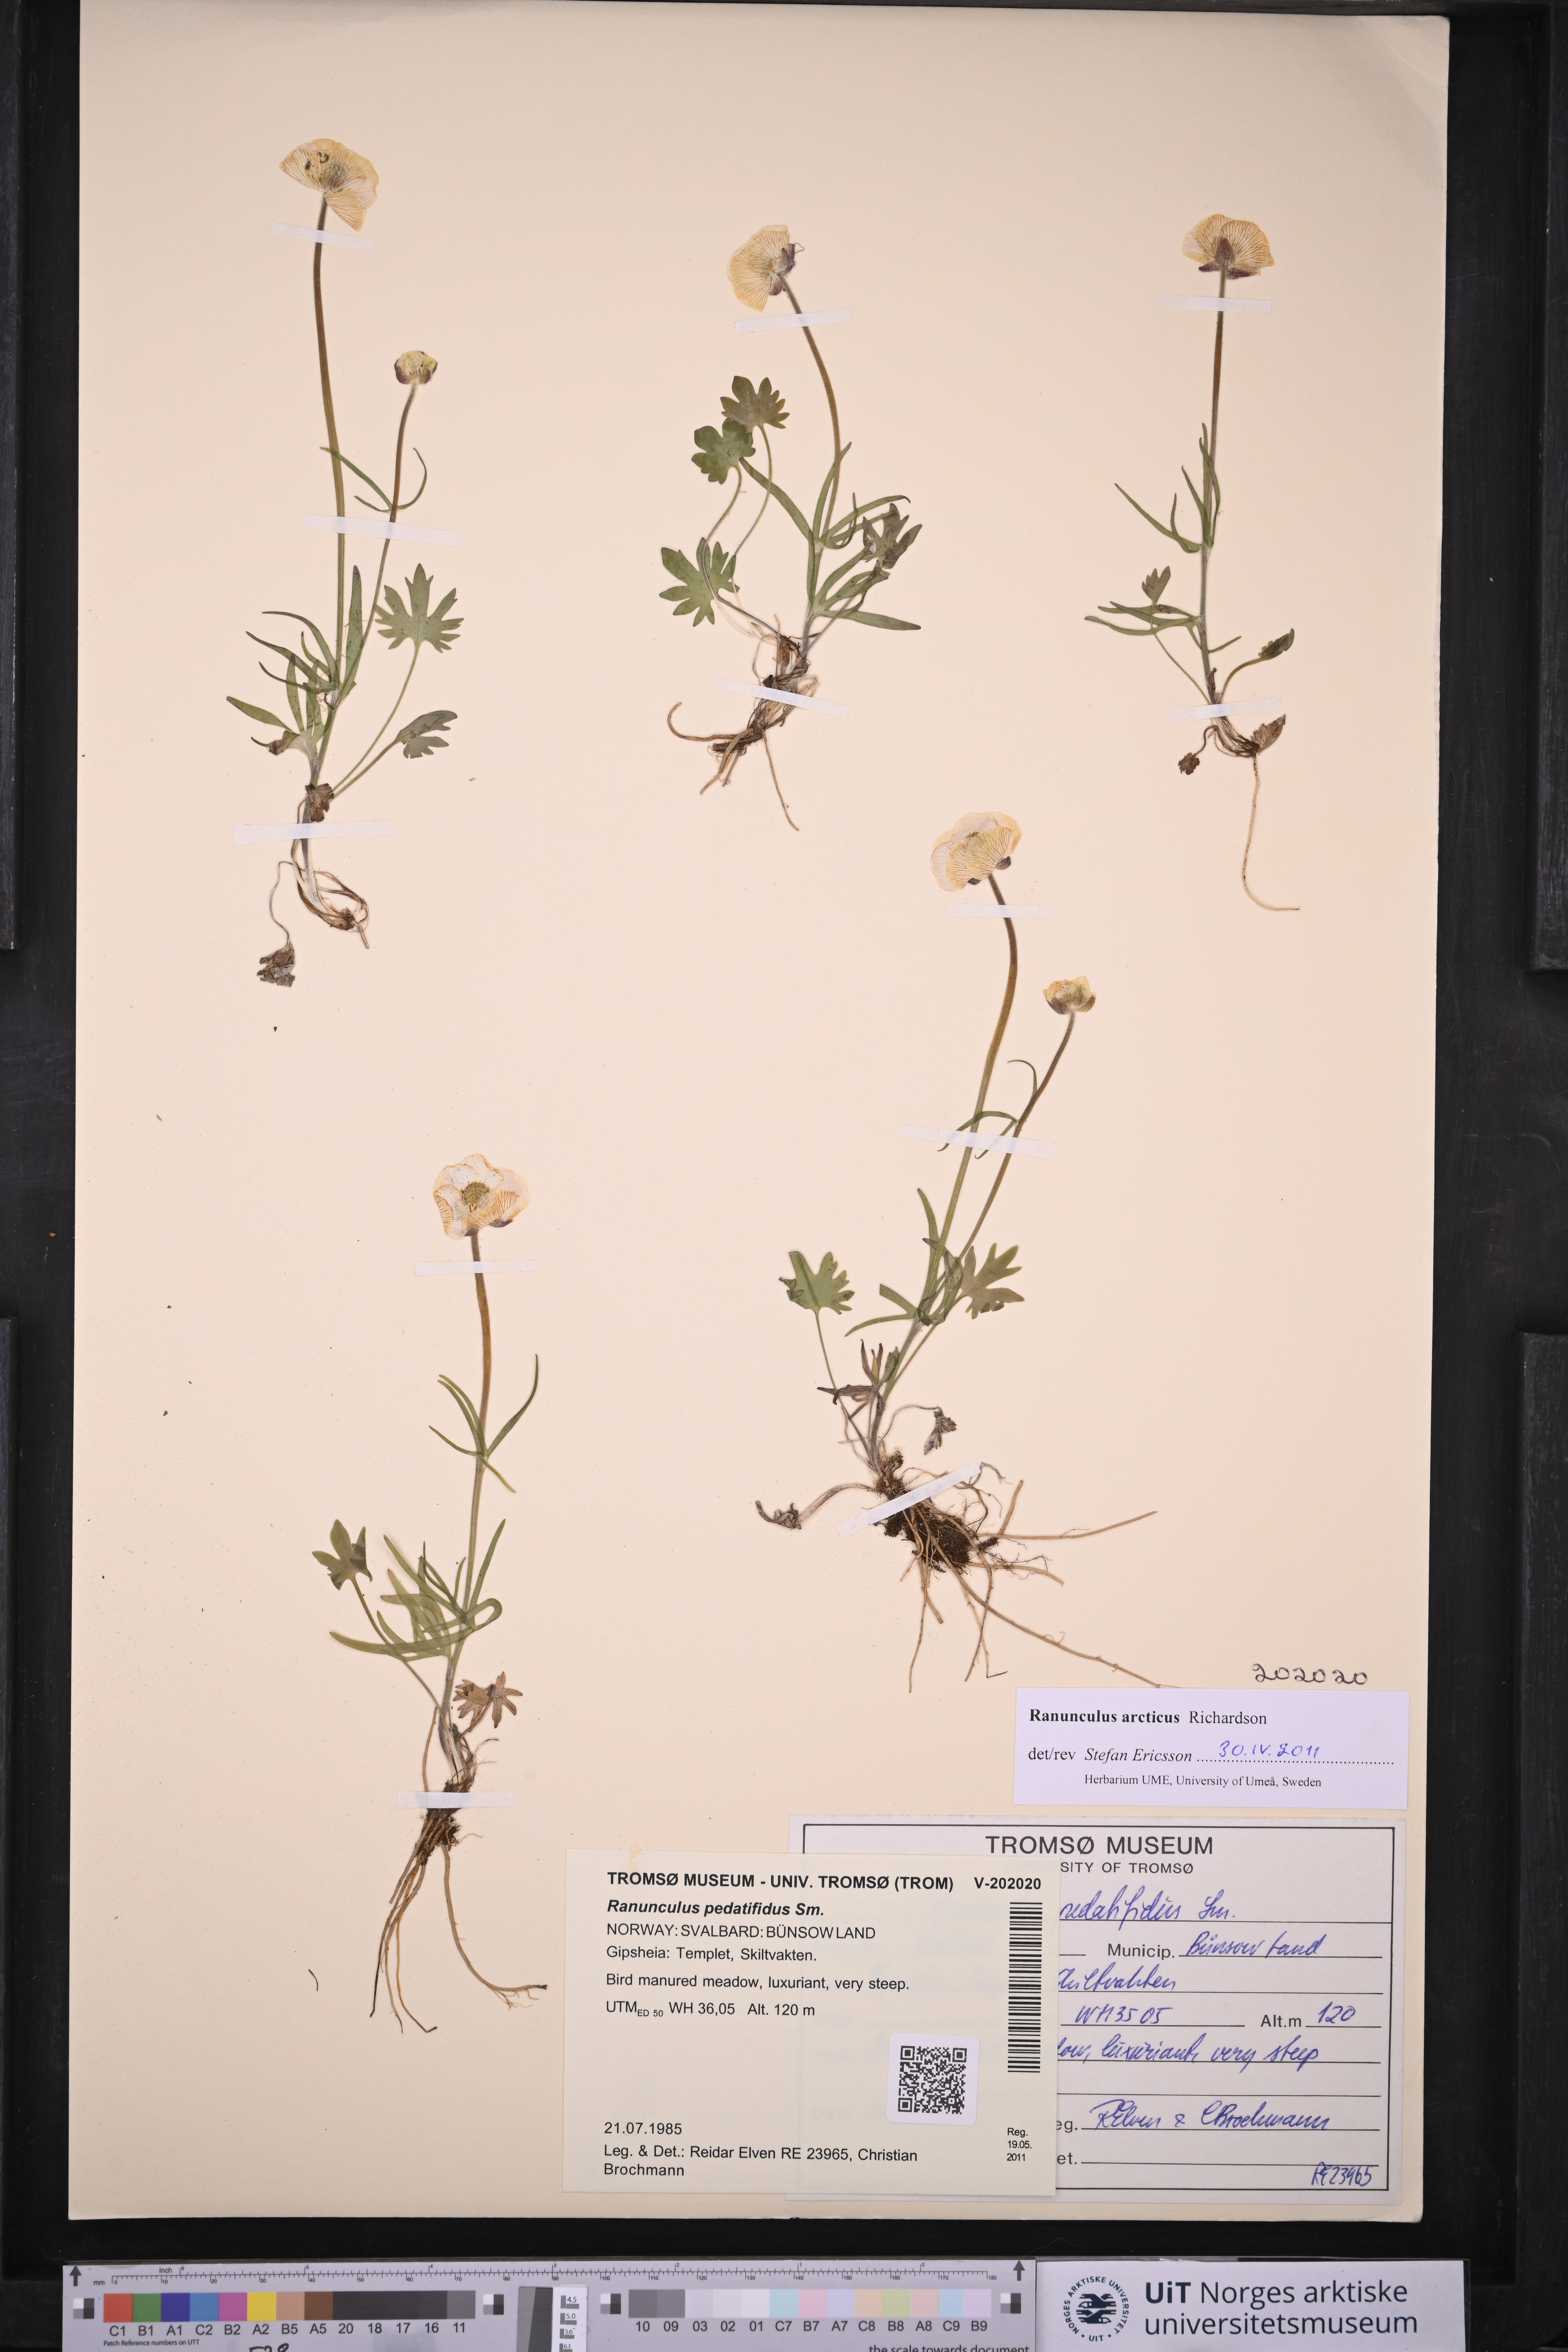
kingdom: Plantae
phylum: Tracheophyta
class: Magnoliopsida
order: Ranunculales
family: Ranunculaceae
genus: Ranunculus
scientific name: Ranunculus arcticus
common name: Bird's-foot buttercup
